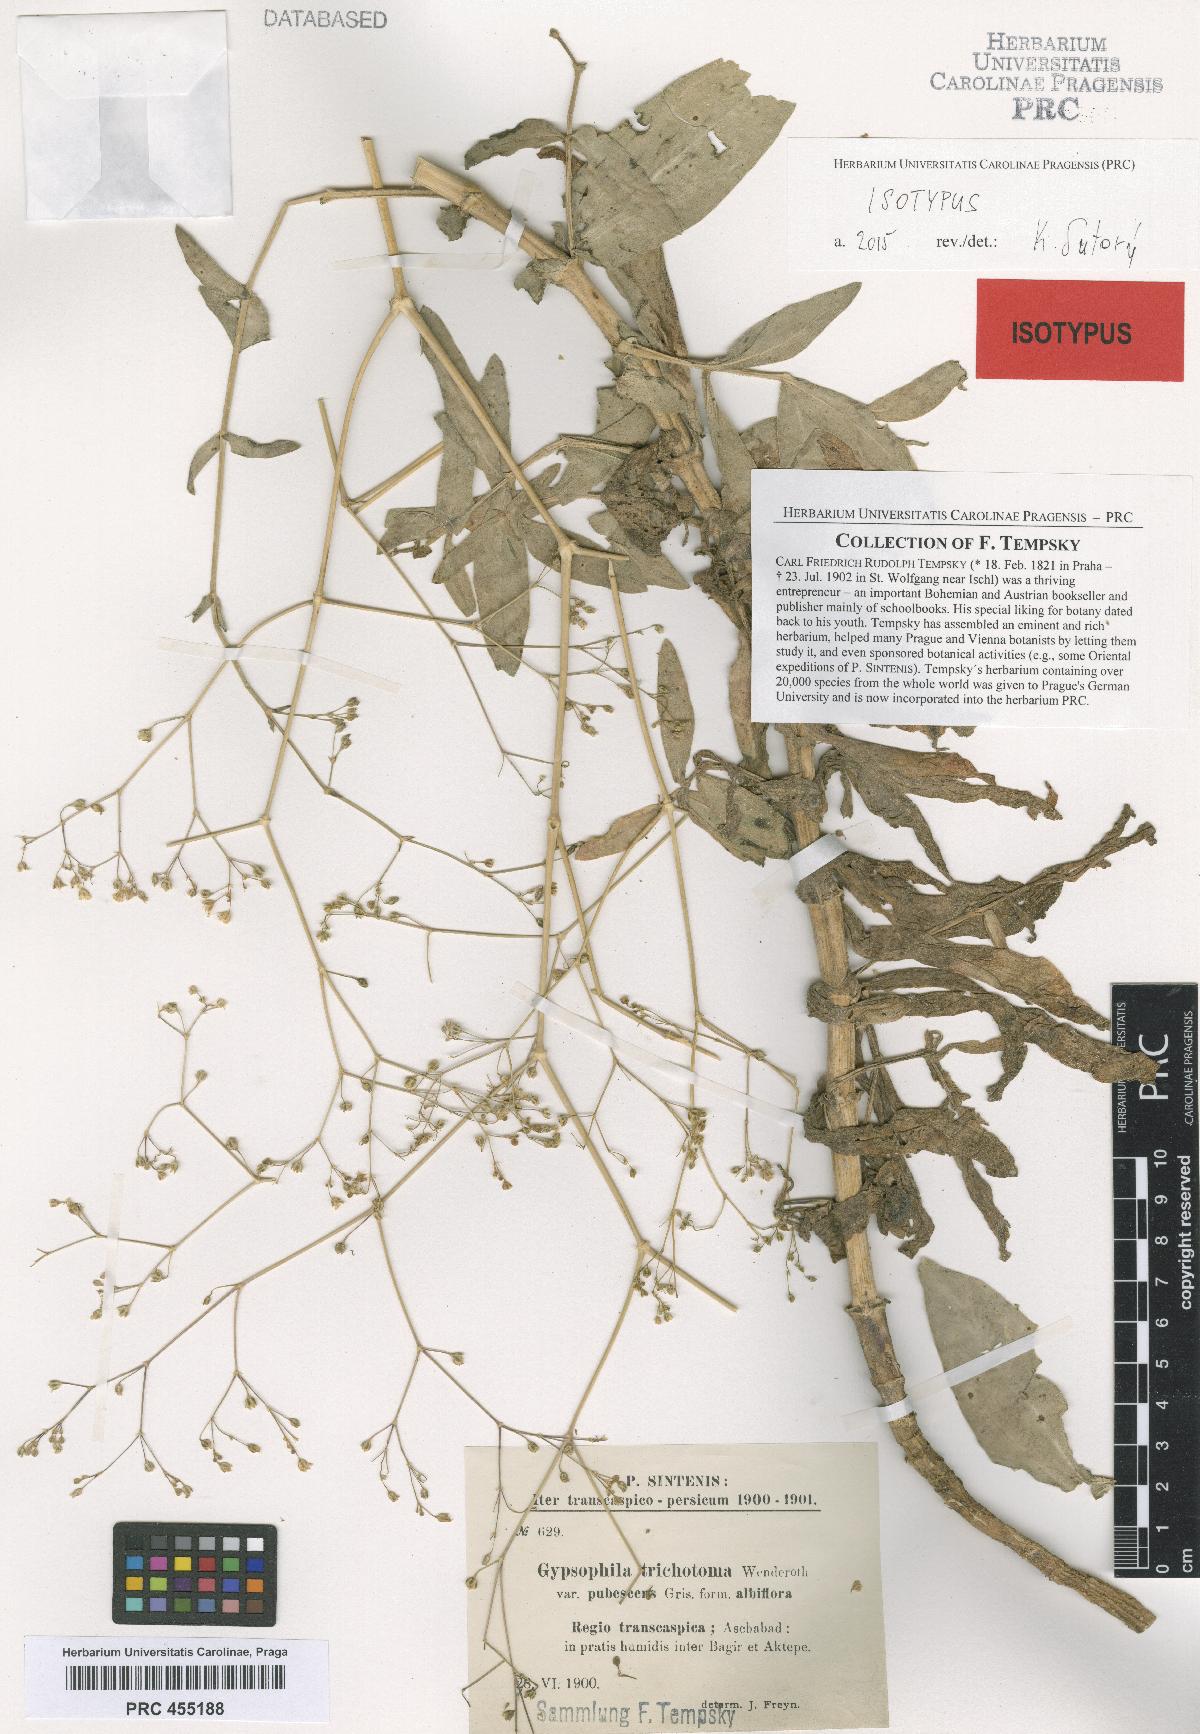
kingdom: Plantae
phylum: Tracheophyta
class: Magnoliopsida
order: Caryophyllales
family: Caryophyllaceae
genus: Gypsophila
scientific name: Gypsophila perfoliata
